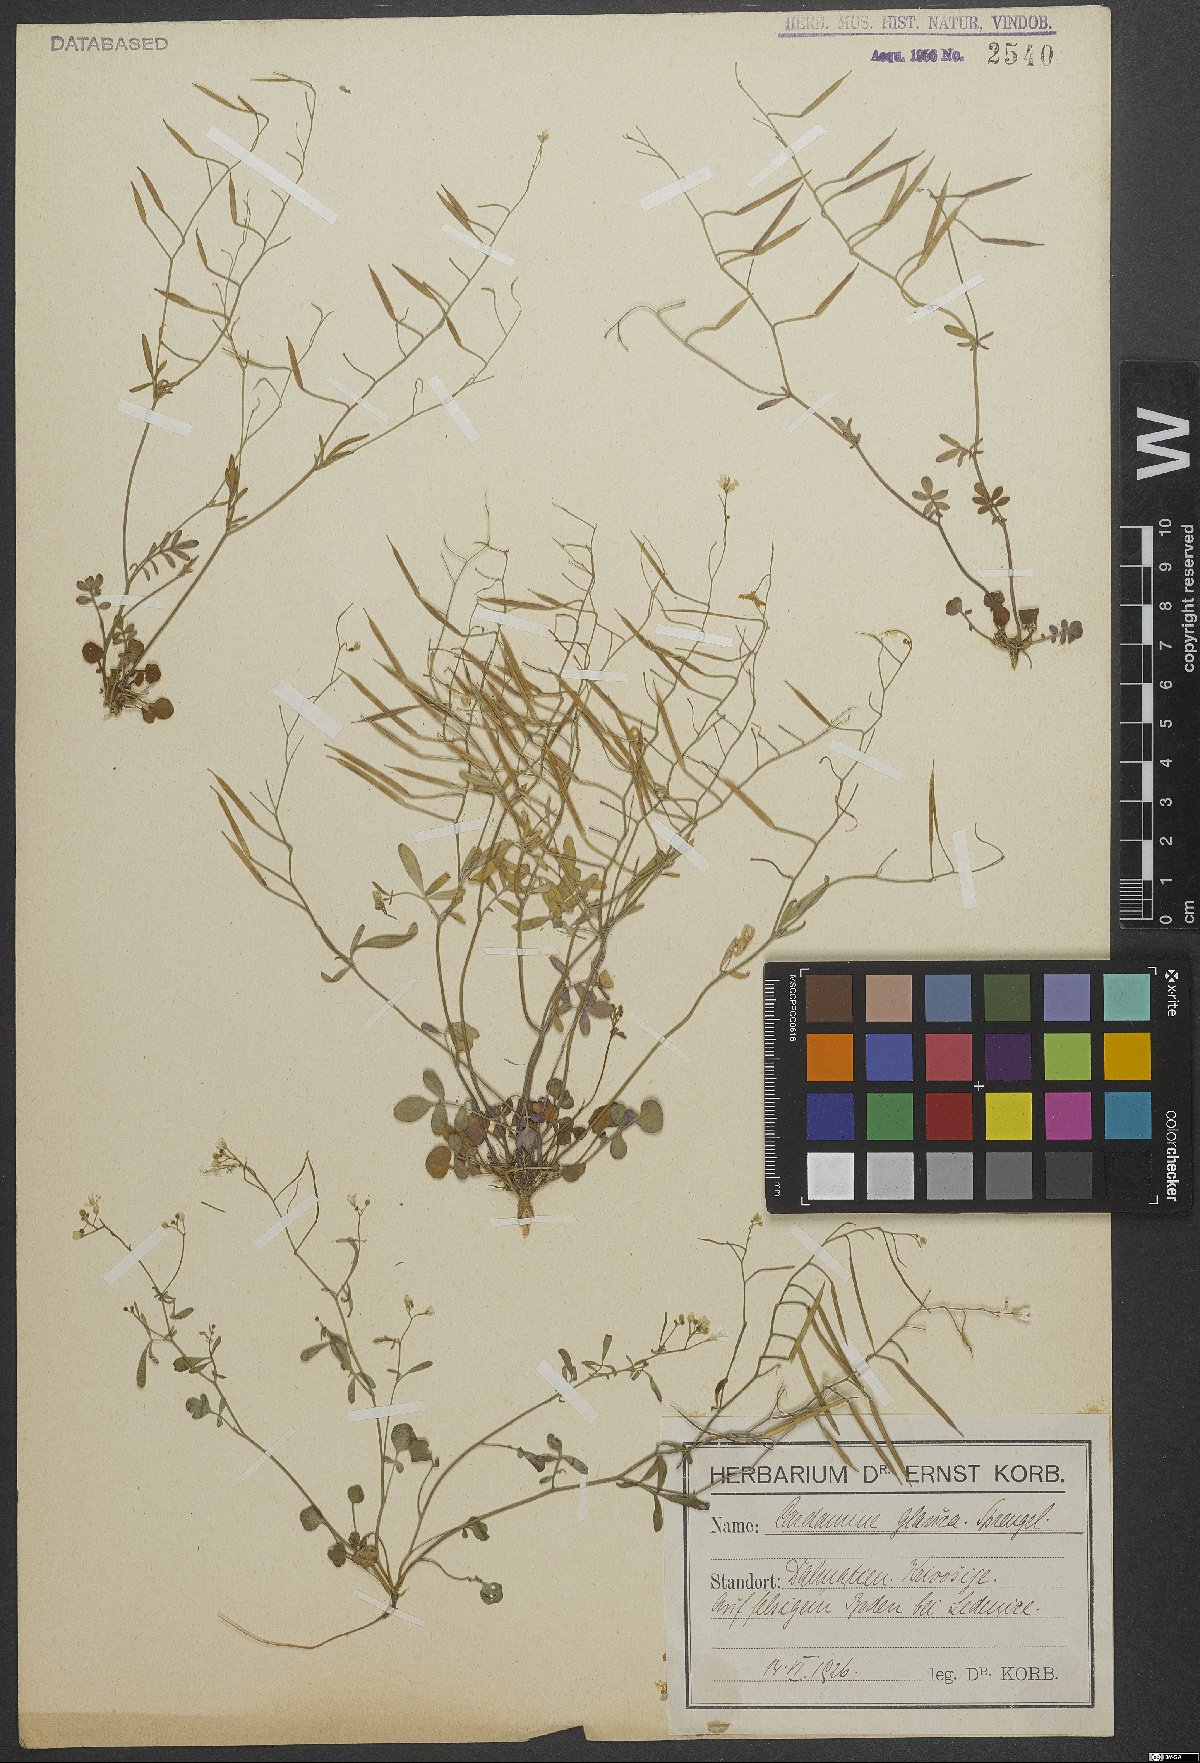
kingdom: Plantae
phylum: Tracheophyta
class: Magnoliopsida
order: Brassicales
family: Brassicaceae
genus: Cardamine
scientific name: Cardamine glauca
